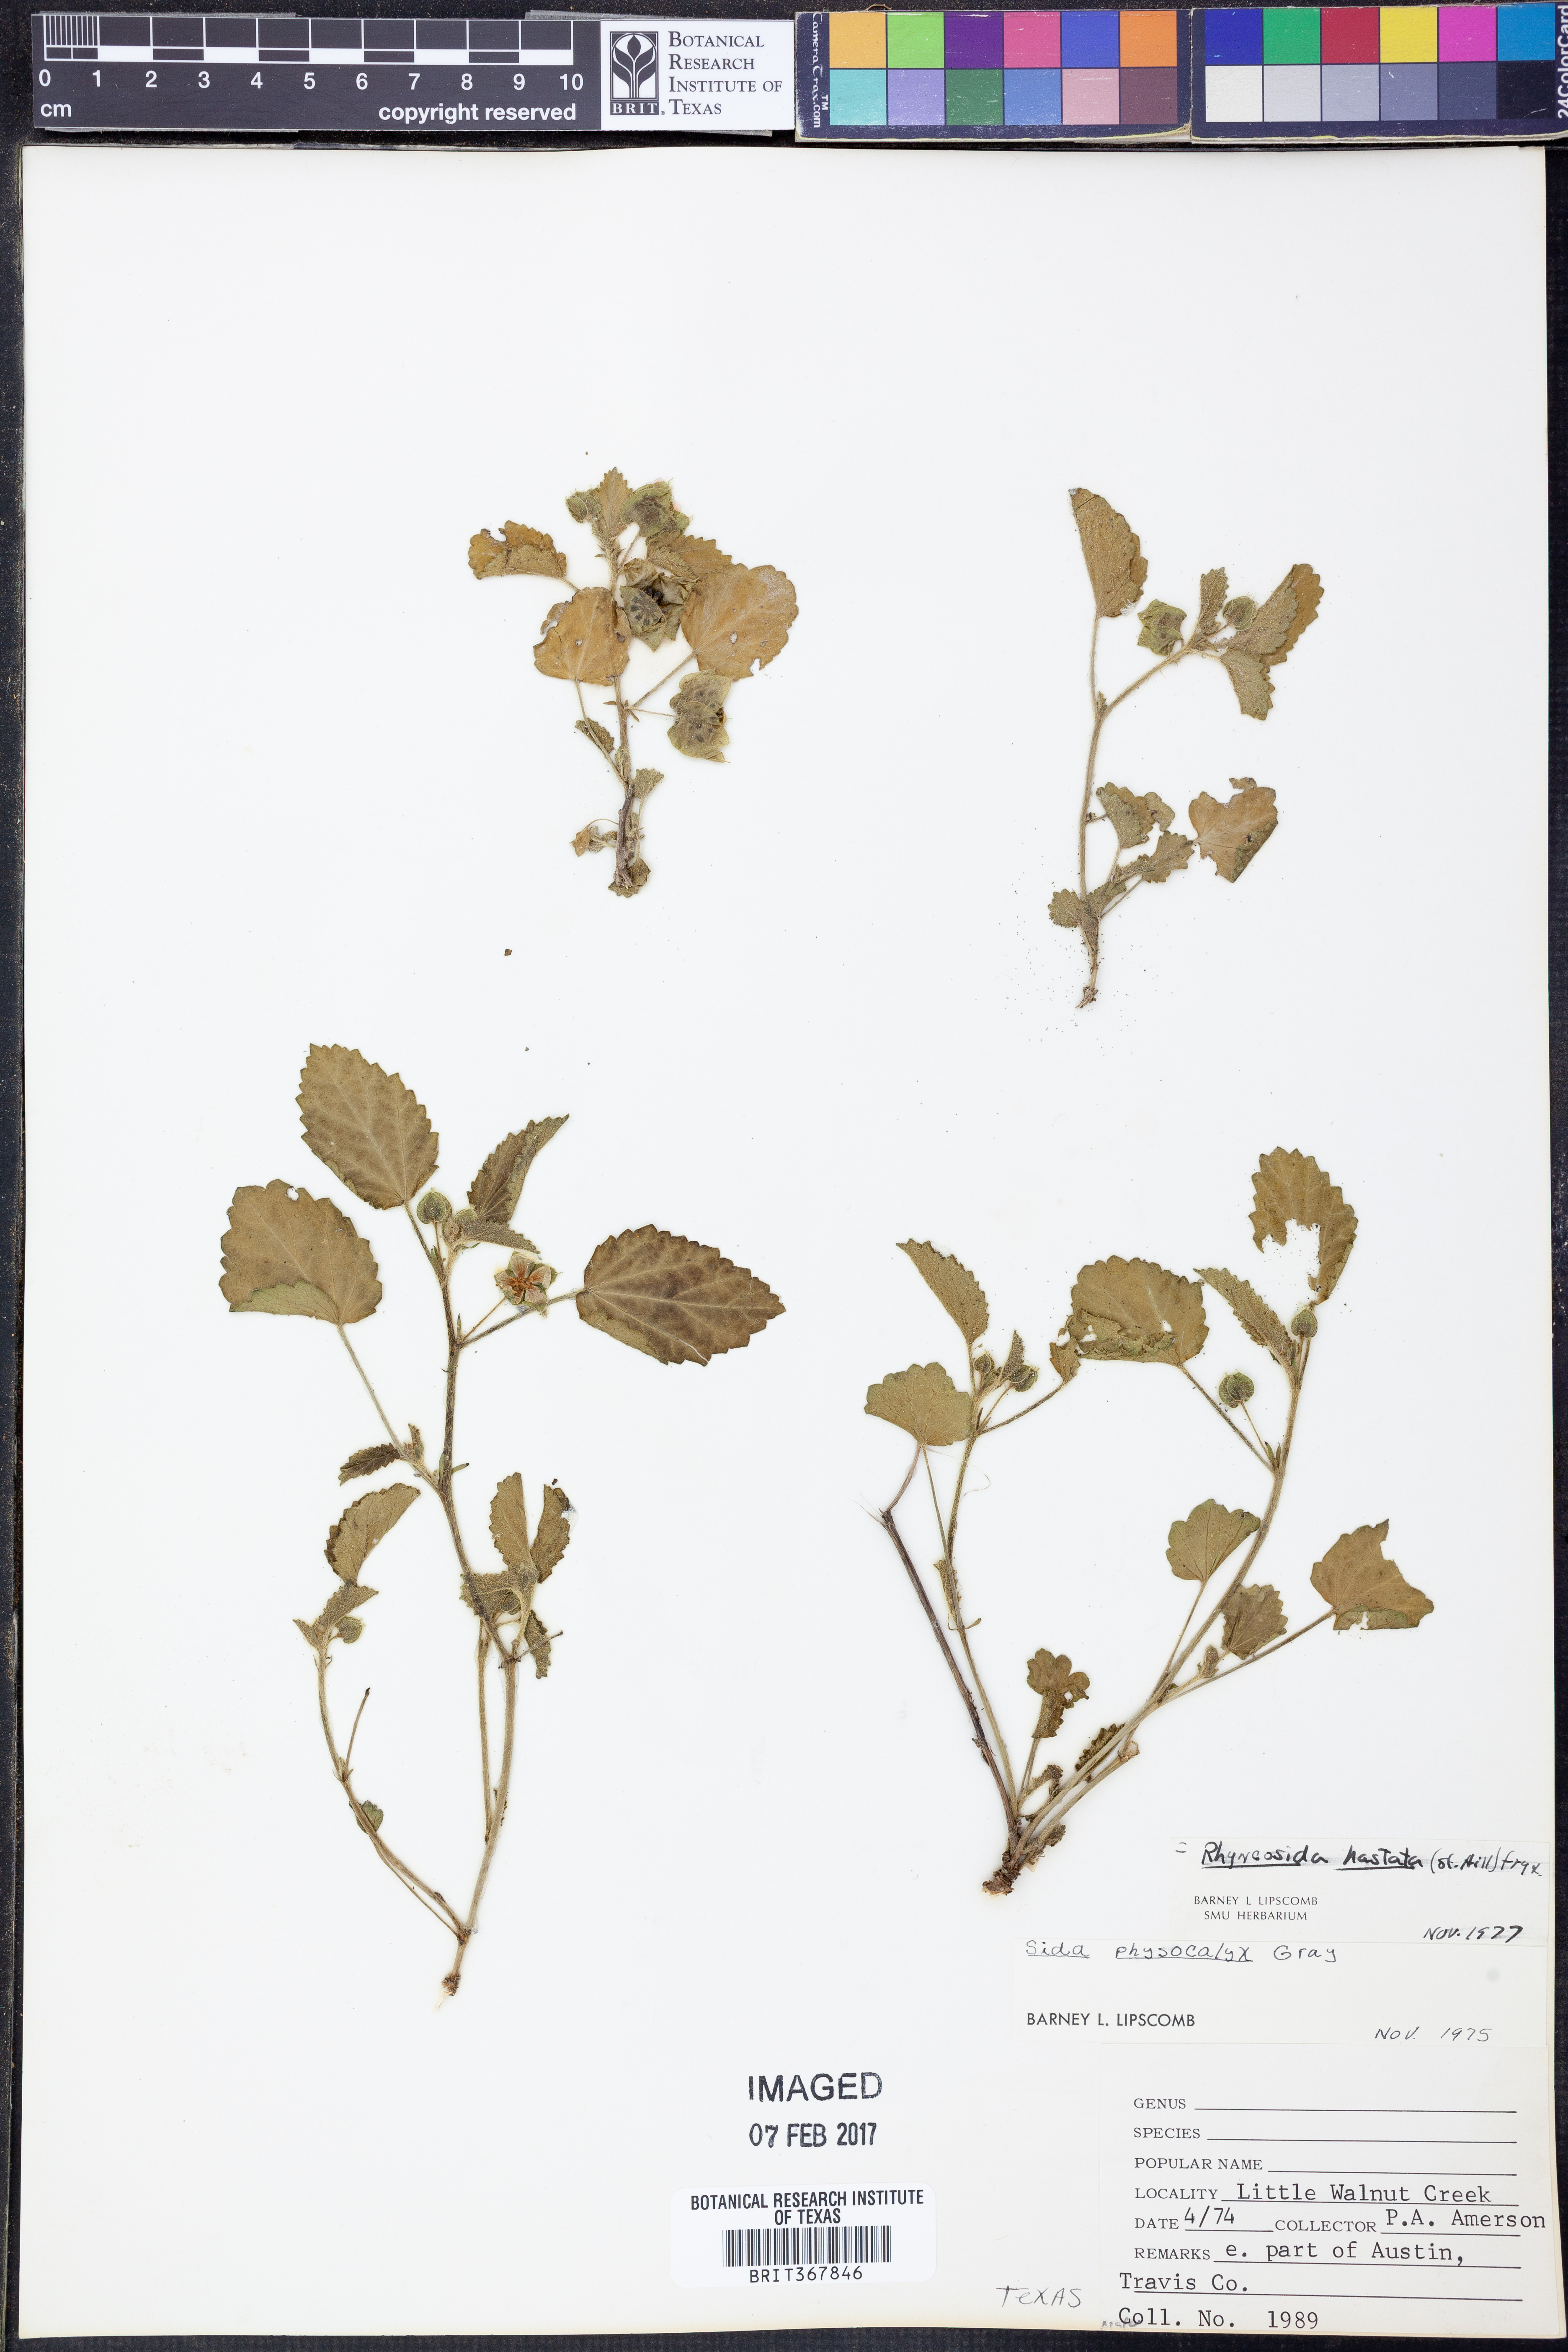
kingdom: Plantae
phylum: Tracheophyta
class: Magnoliopsida
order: Malvales
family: Malvaceae
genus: Rhynchosida
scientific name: Rhynchosida
